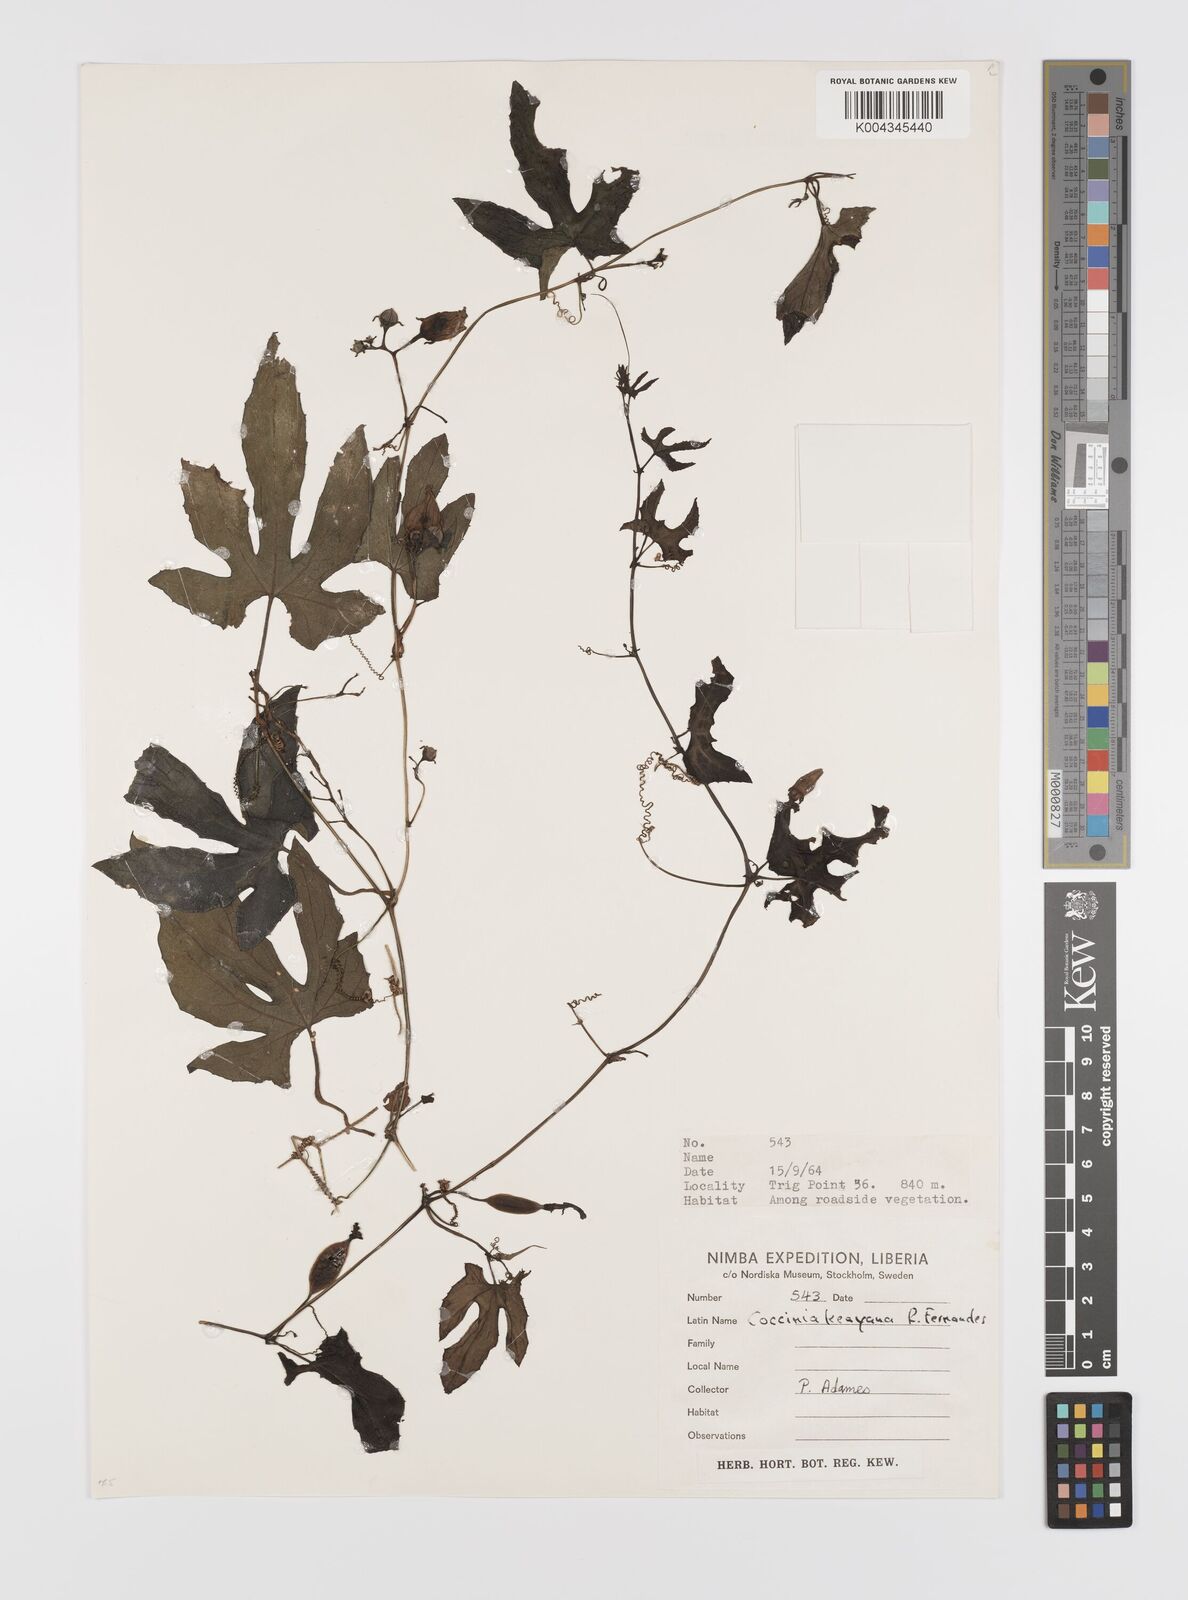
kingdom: Plantae
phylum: Tracheophyta
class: Magnoliopsida
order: Cucurbitales
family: Cucurbitaceae
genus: Coccinia
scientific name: Coccinia keayana
